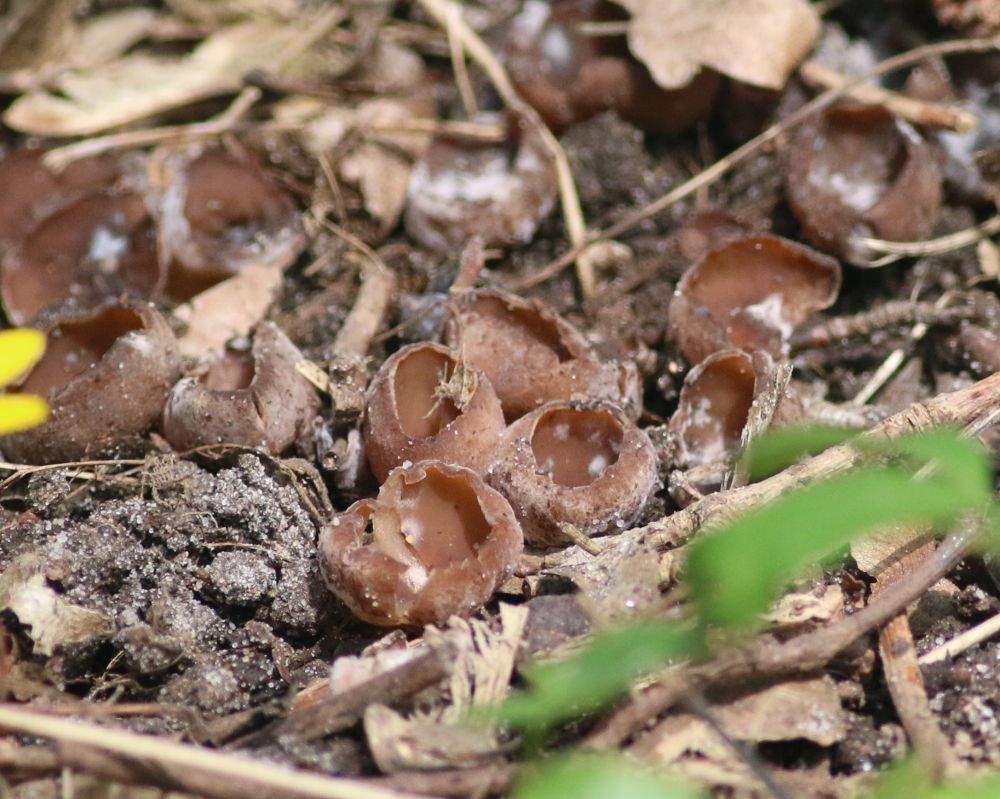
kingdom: Fungi
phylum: Ascomycota
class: Leotiomycetes
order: Helotiales
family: Sclerotiniaceae
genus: Dumontinia
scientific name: Dumontinia tuberosa
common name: anemone-knoldskive
